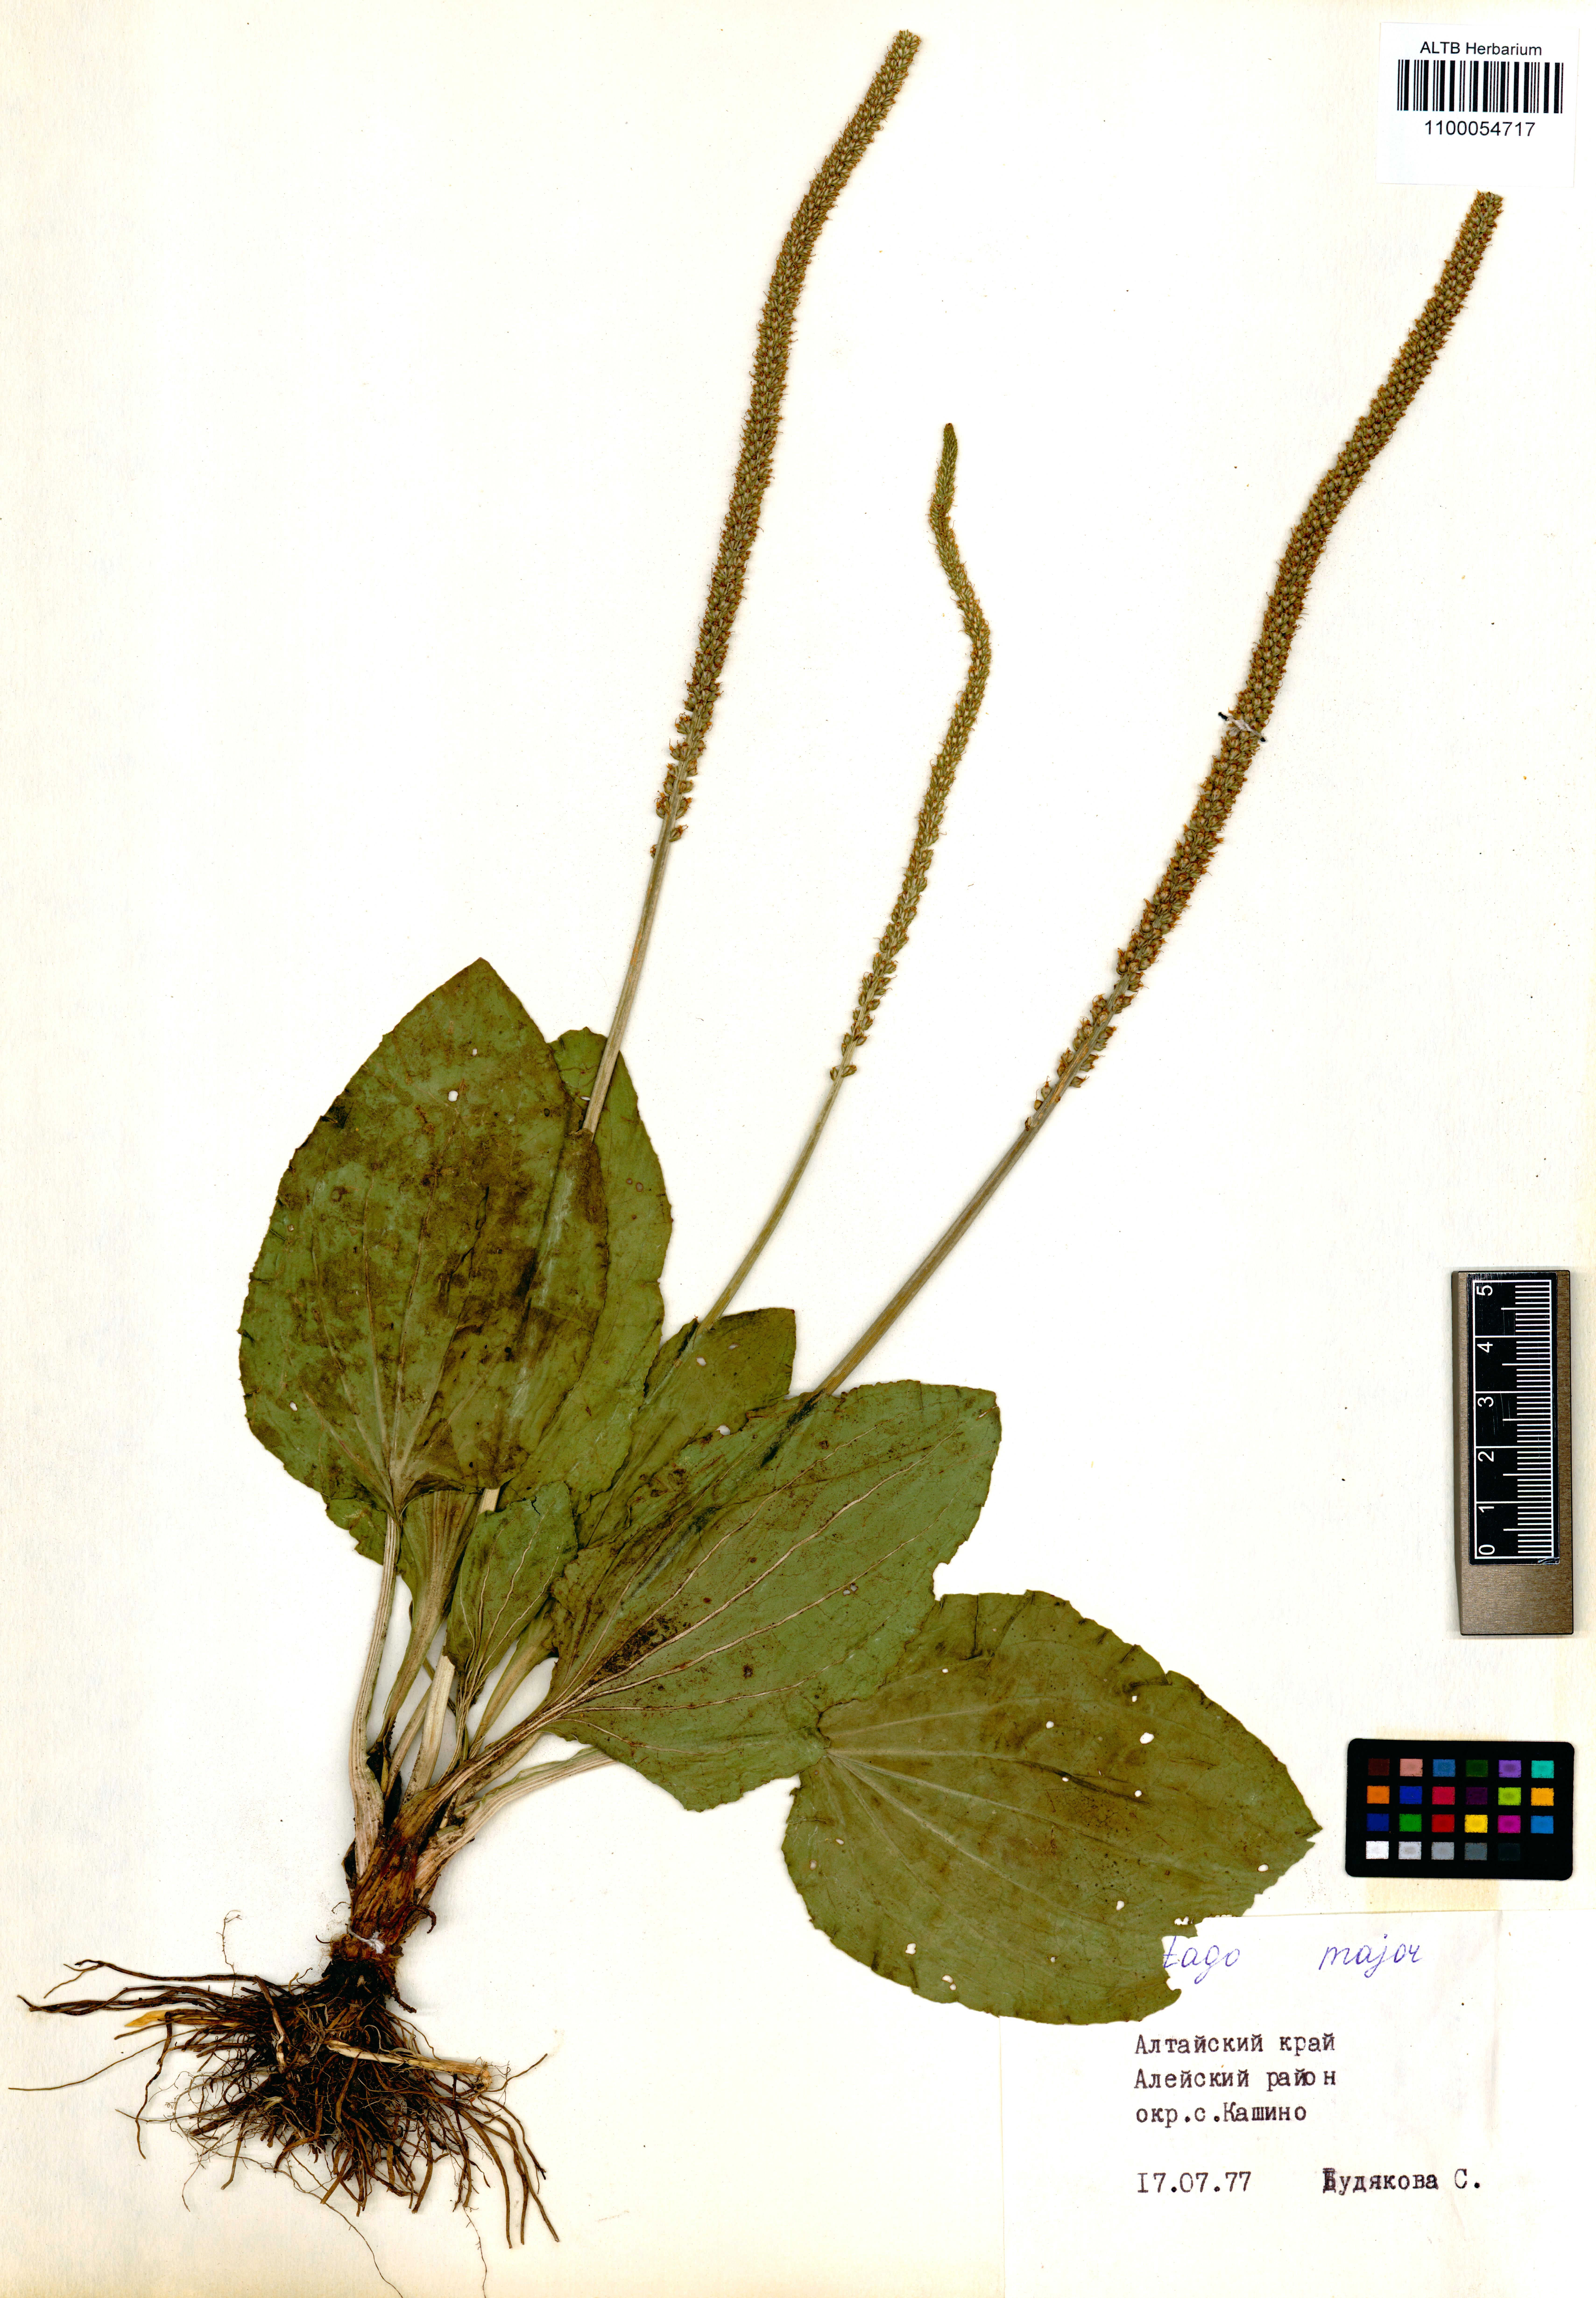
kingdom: Plantae
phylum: Tracheophyta
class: Magnoliopsida
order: Lamiales
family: Plantaginaceae
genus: Plantago
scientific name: Plantago major
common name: Common plantain
